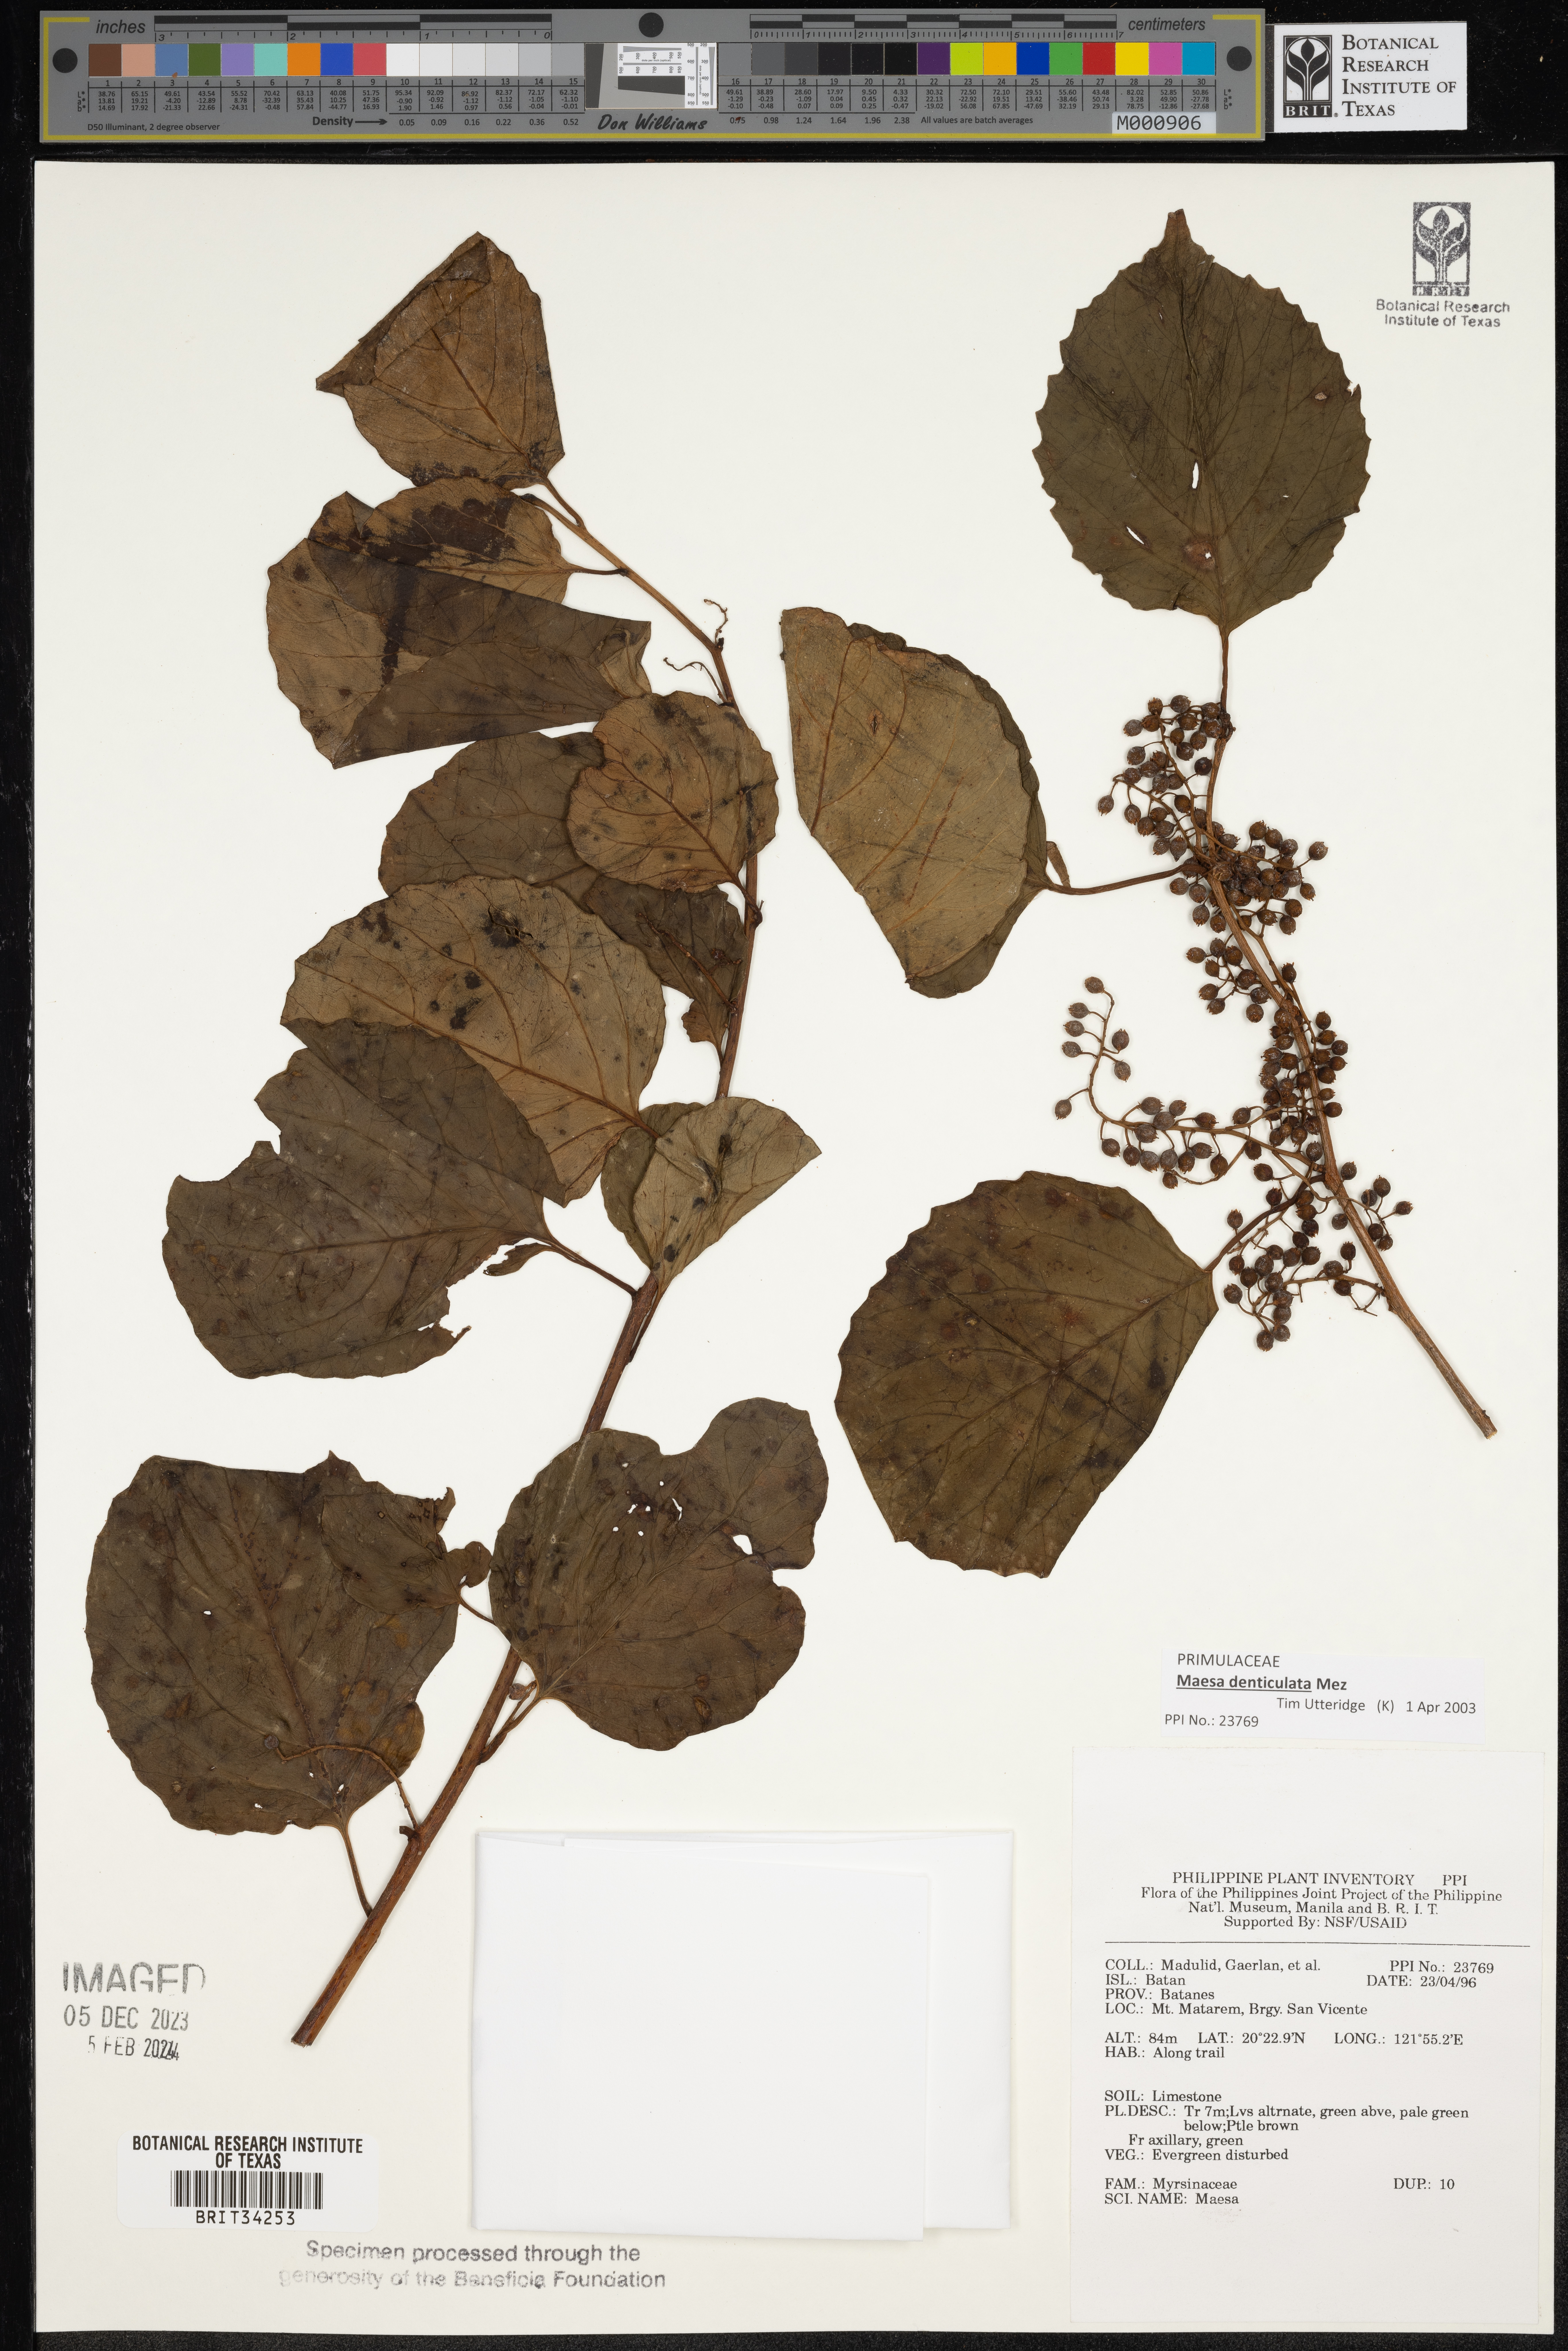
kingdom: Plantae
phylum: Tracheophyta
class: Magnoliopsida
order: Ericales
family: Primulaceae
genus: Maesa
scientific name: Maesa
